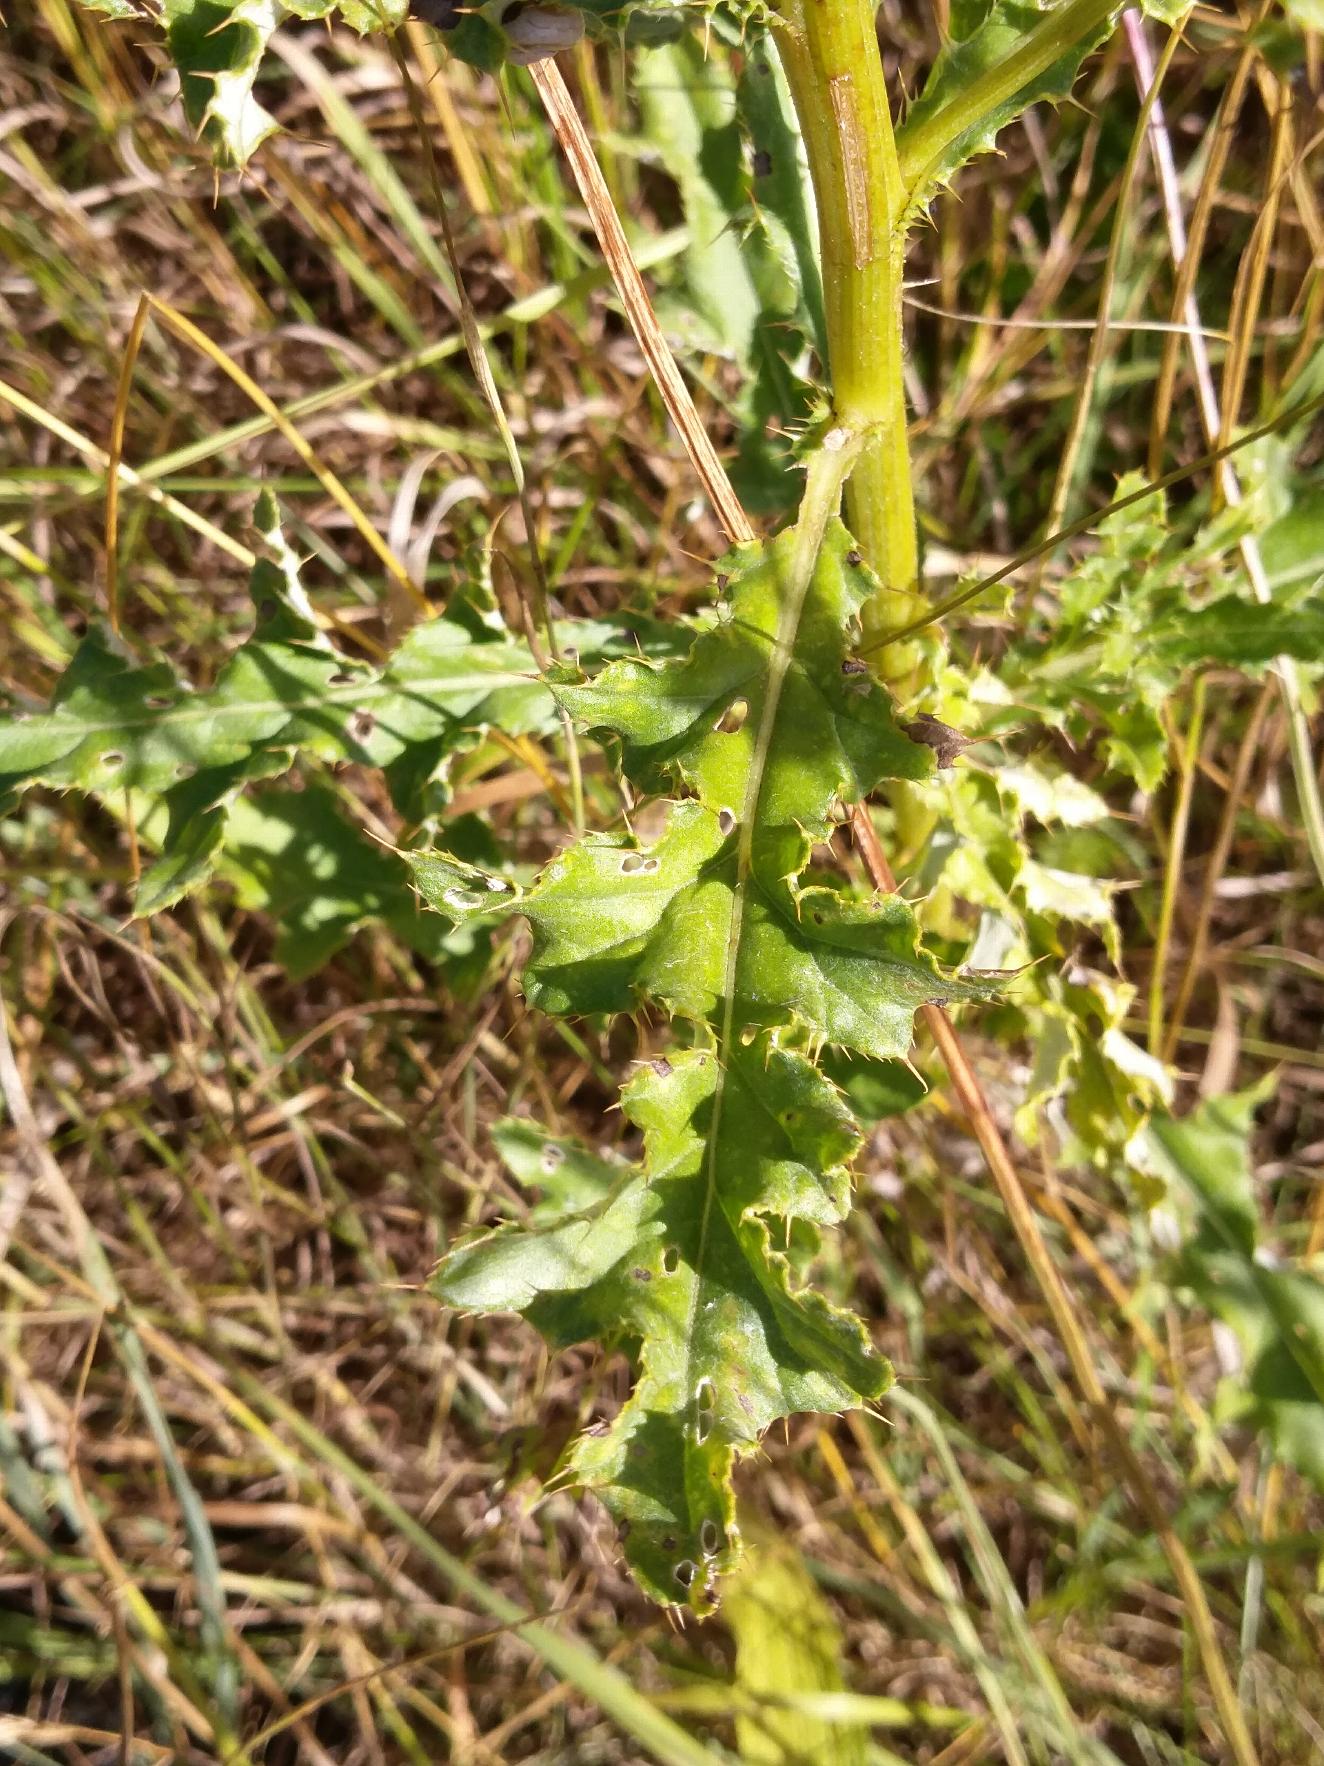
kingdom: Plantae
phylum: Tracheophyta
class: Magnoliopsida
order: Asterales
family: Asteraceae
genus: Cirsium
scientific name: Cirsium arvense
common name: Ager-tidsel
